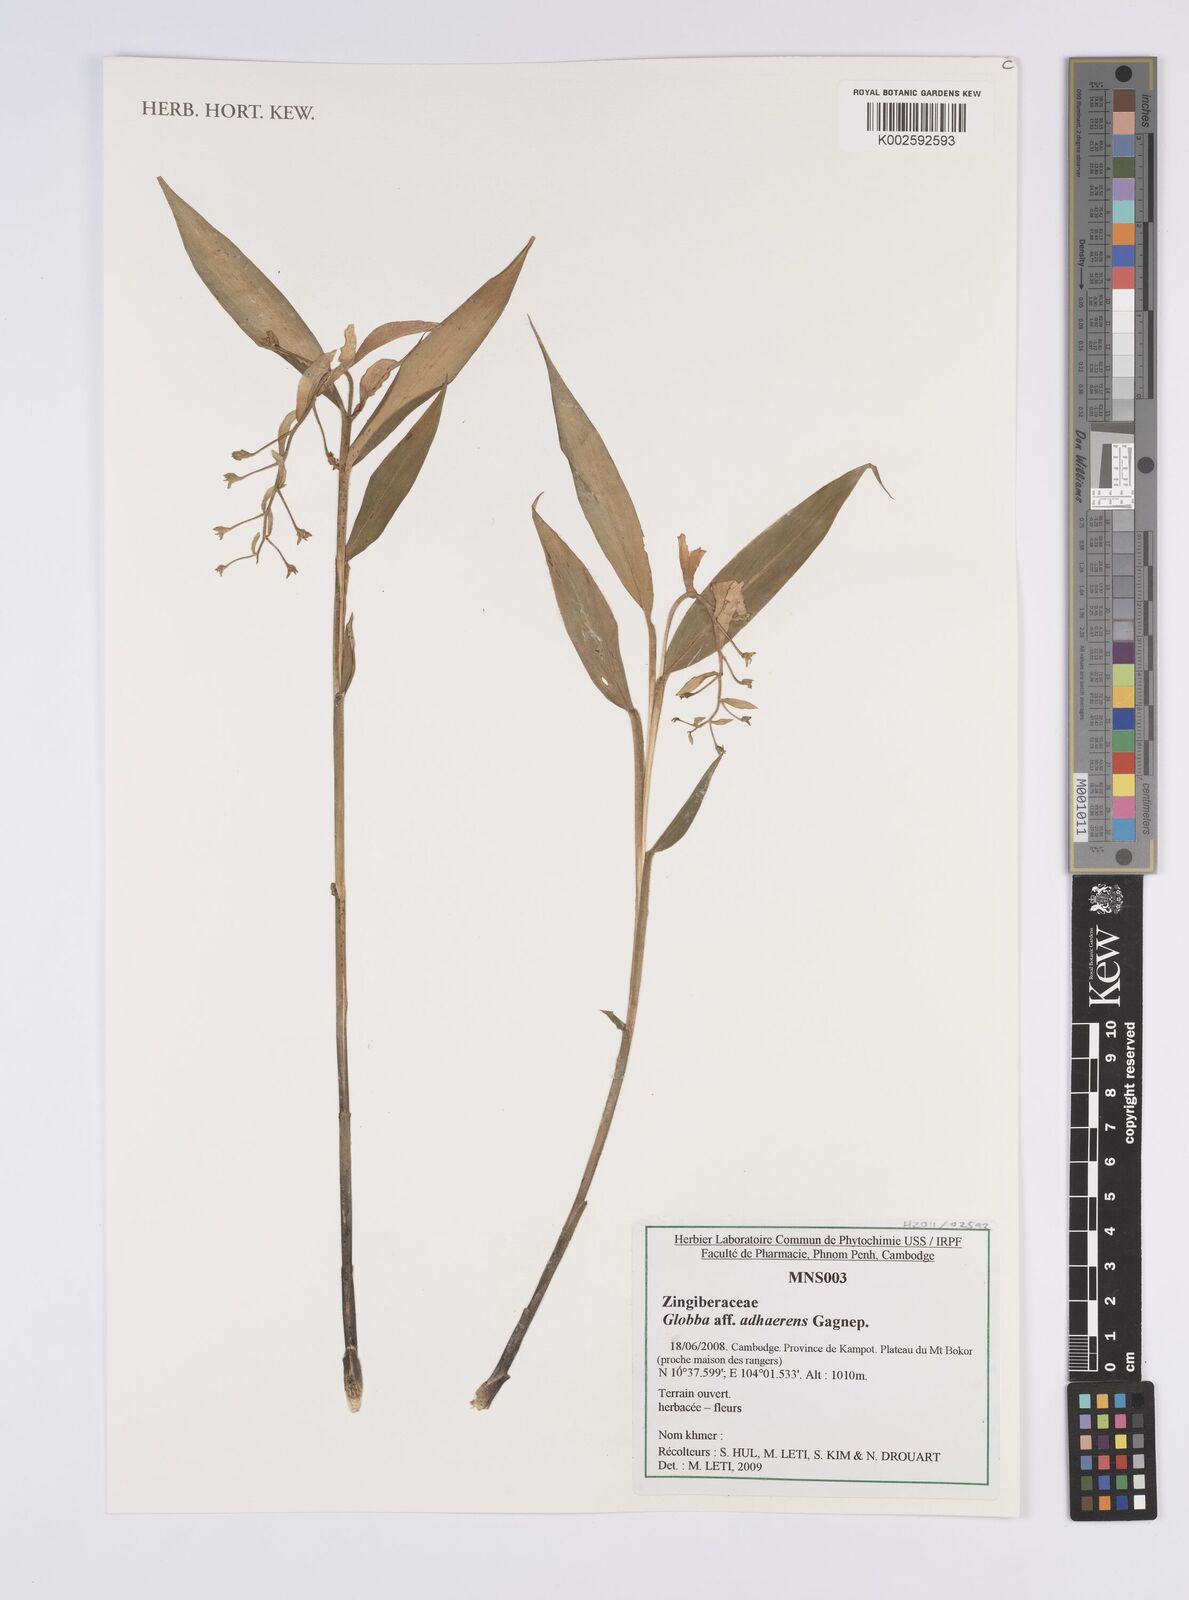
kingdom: Plantae
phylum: Tracheophyta
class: Liliopsida
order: Zingiberales
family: Zingiberaceae
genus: Globba
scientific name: Globba adhaerens
